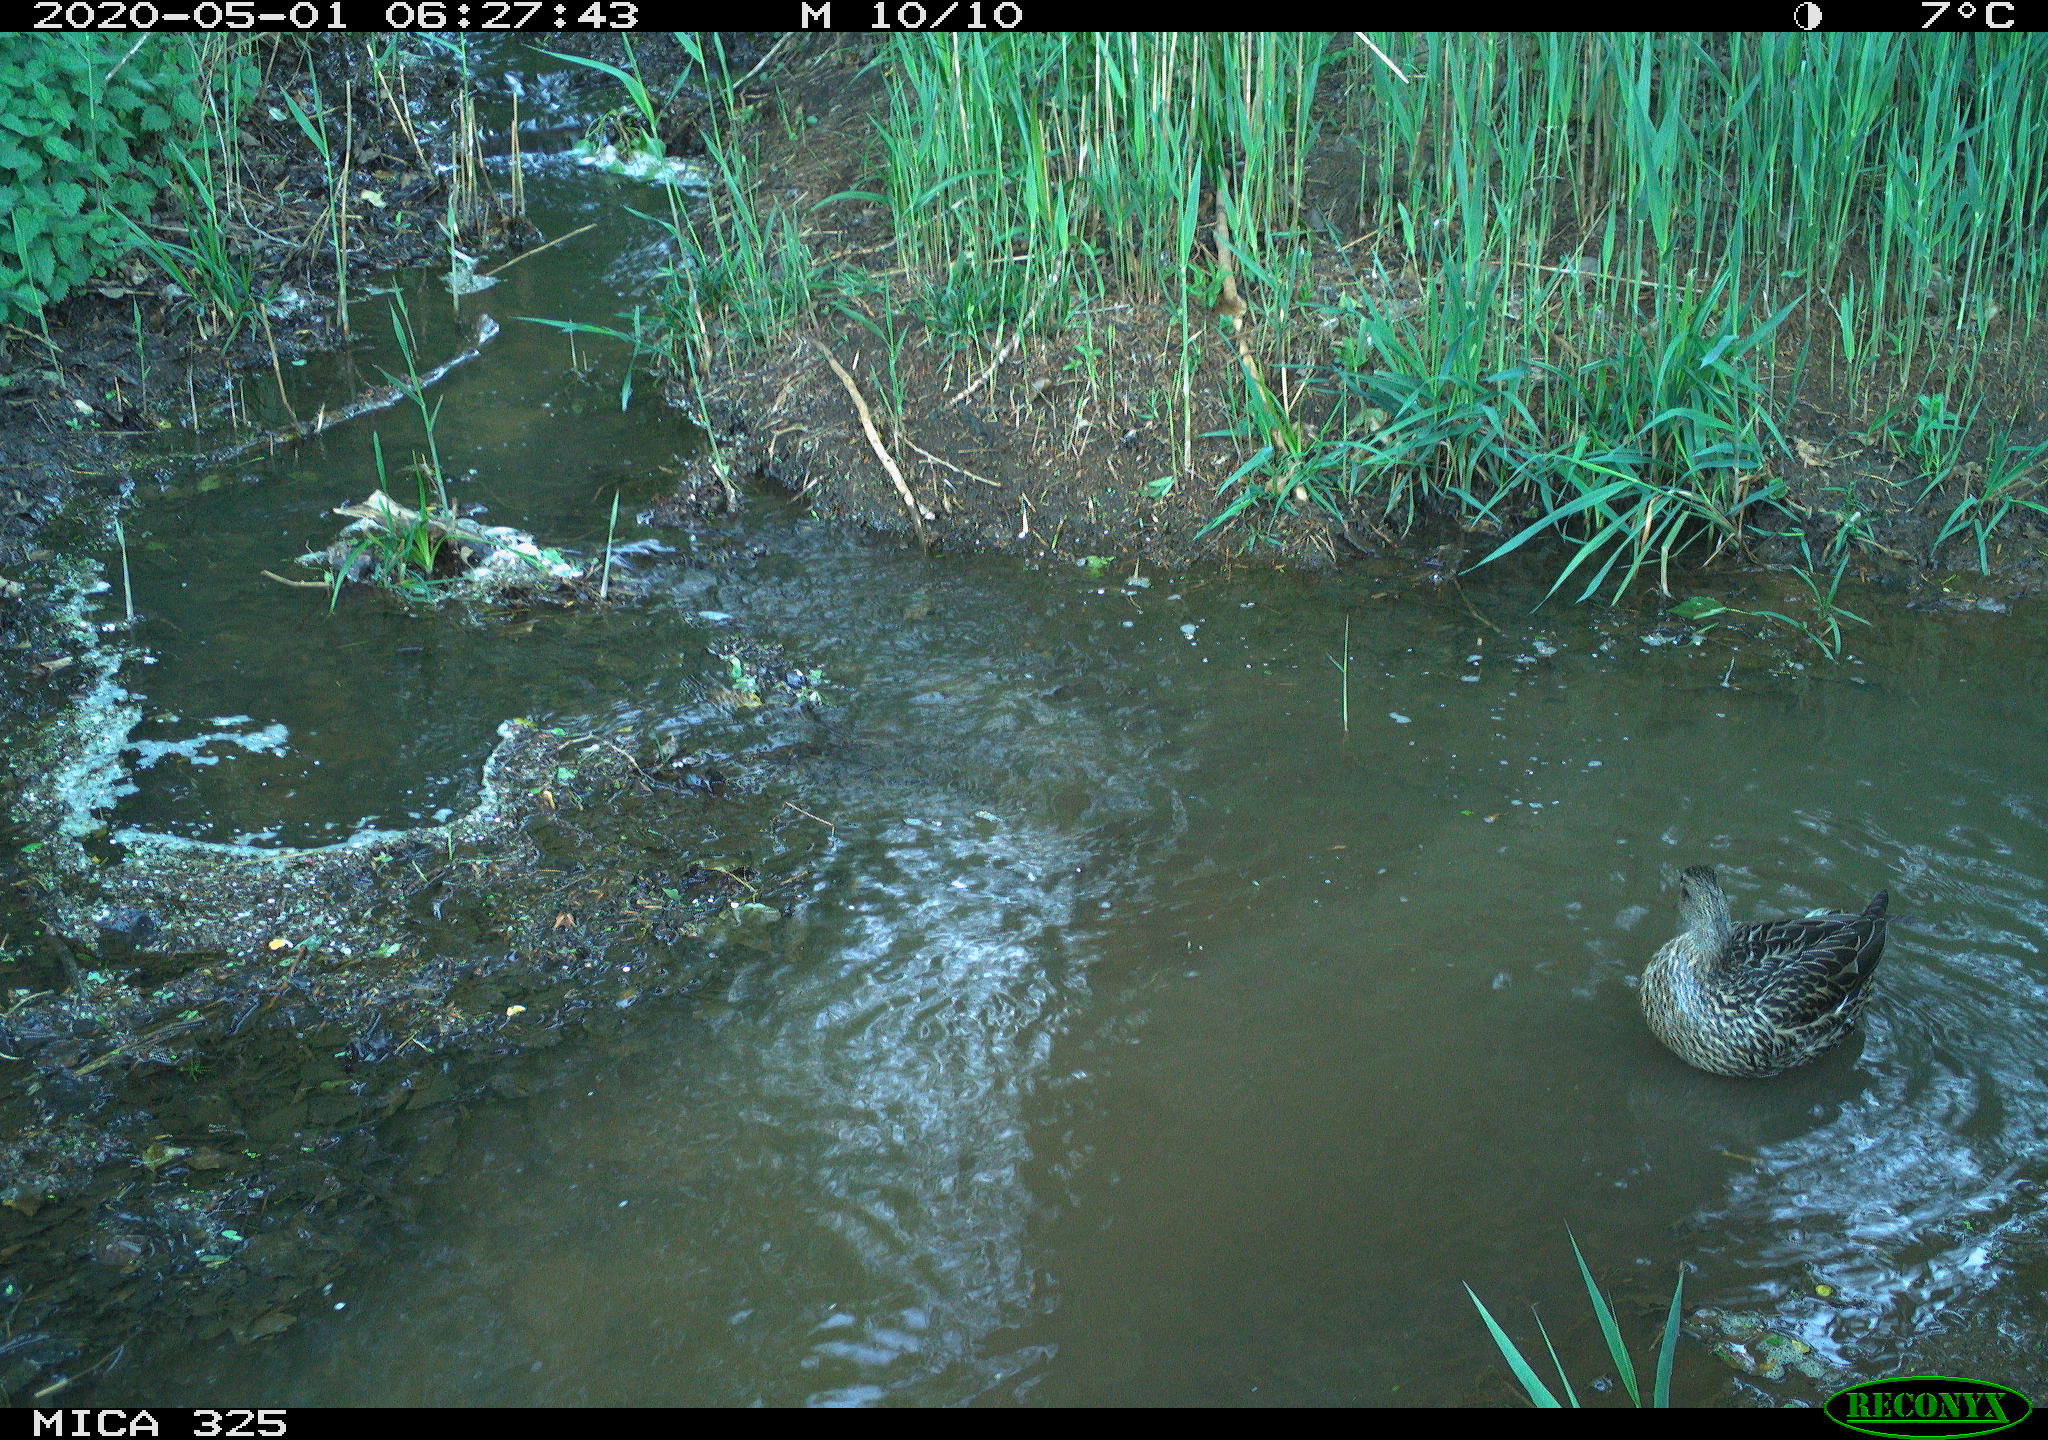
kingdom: Animalia
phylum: Chordata
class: Aves
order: Anseriformes
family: Anatidae
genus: Anas
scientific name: Anas platyrhynchos
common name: Mallard
